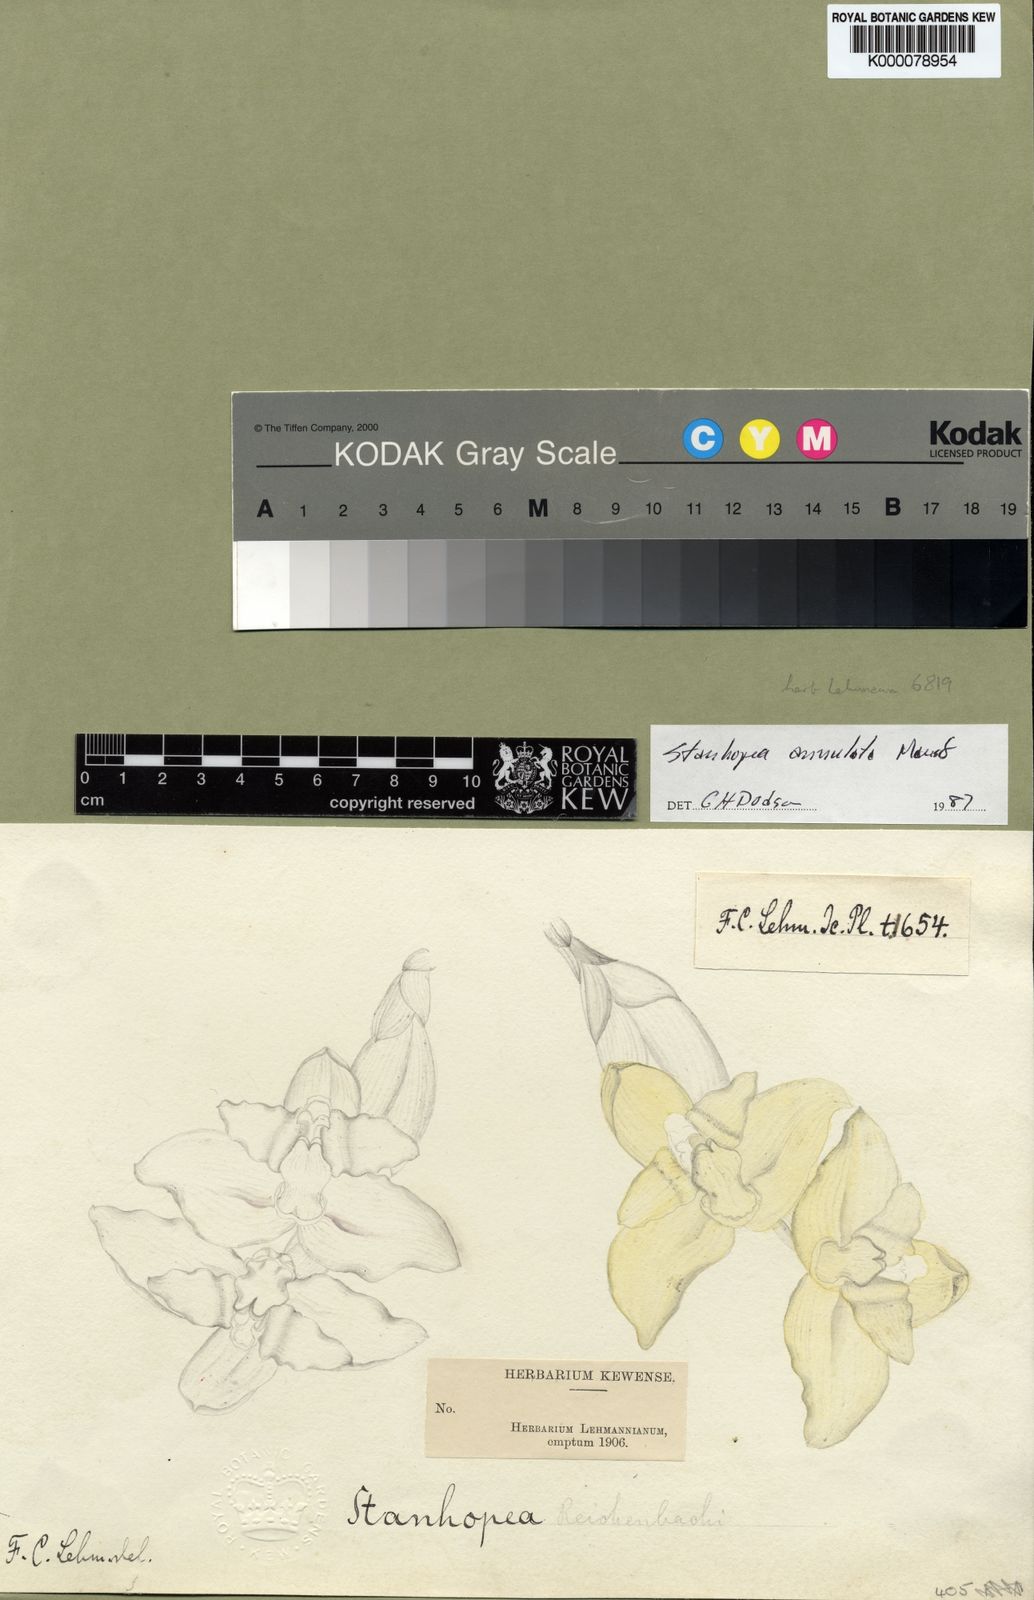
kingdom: Plantae
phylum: Tracheophyta
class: Liliopsida
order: Asparagales
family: Orchidaceae
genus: Stanhopea
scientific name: Stanhopea annulata
